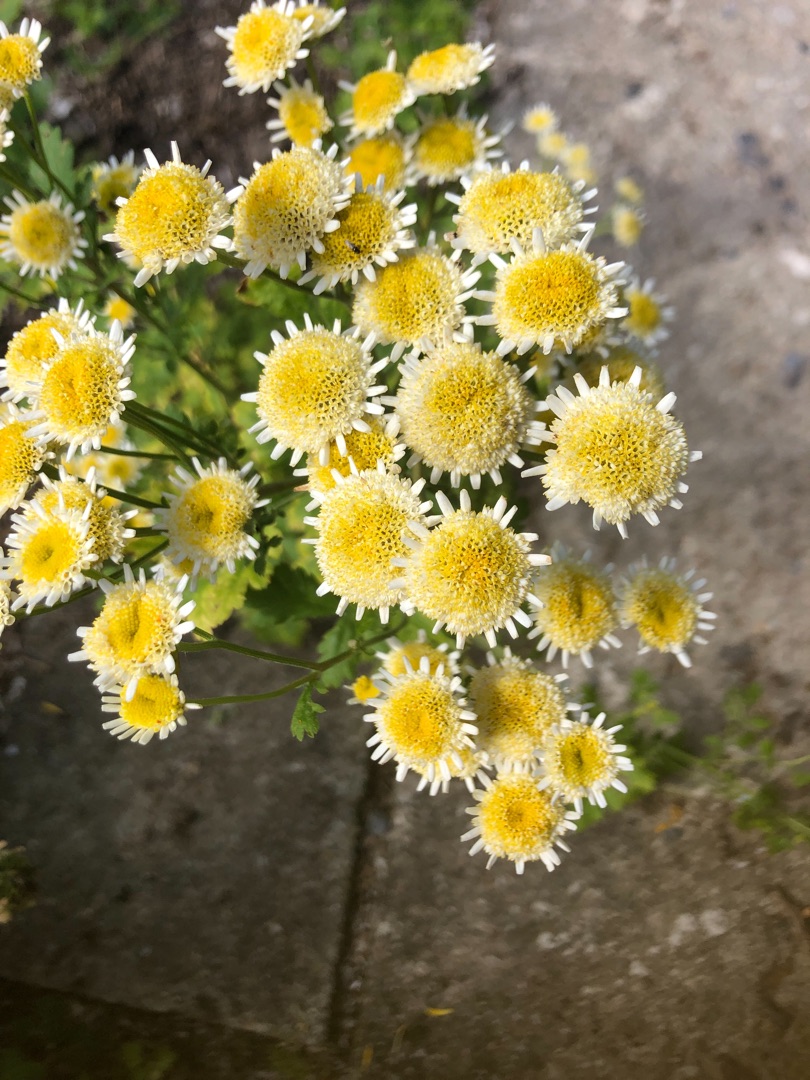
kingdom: Plantae
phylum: Tracheophyta
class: Magnoliopsida
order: Asterales
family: Asteraceae
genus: Tanacetum
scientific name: Tanacetum parthenium
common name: Matrem
